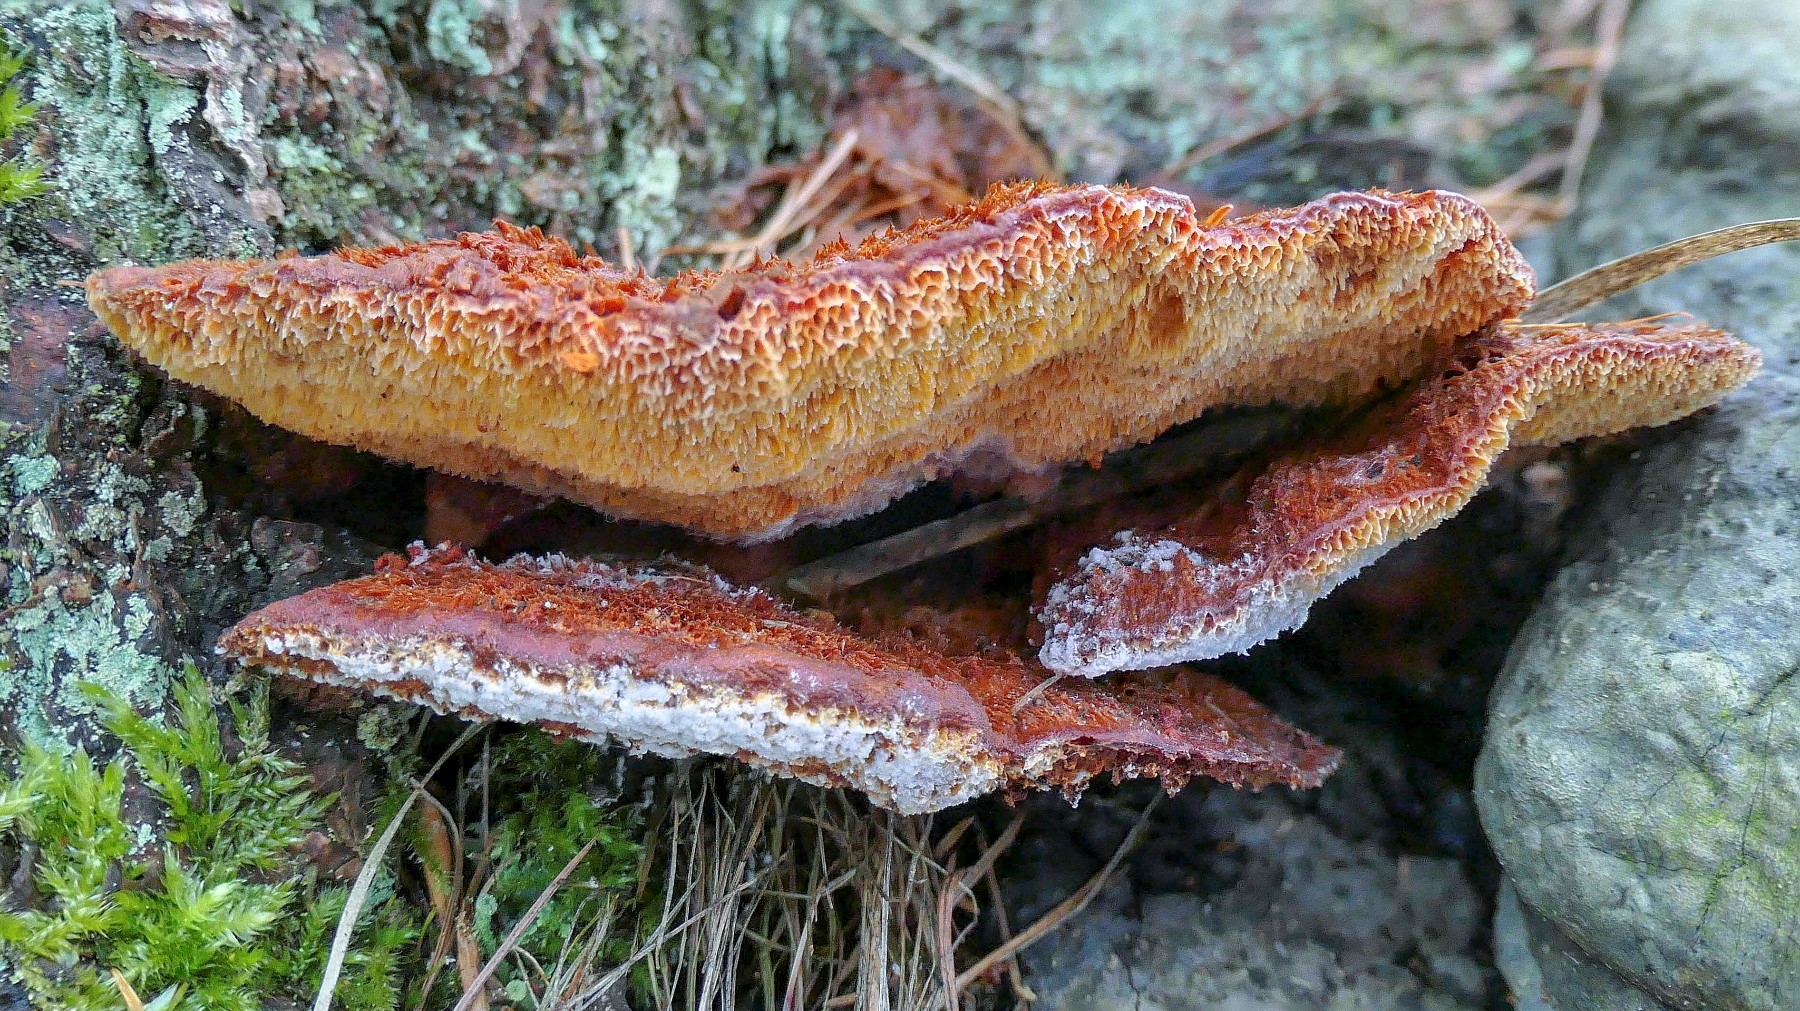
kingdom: Fungi
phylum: Basidiomycota
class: Agaricomycetes
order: Polyporales
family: Pycnoporellaceae
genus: Pycnoporellus
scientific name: Pycnoporellus fulgens
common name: flammeporesvamp
